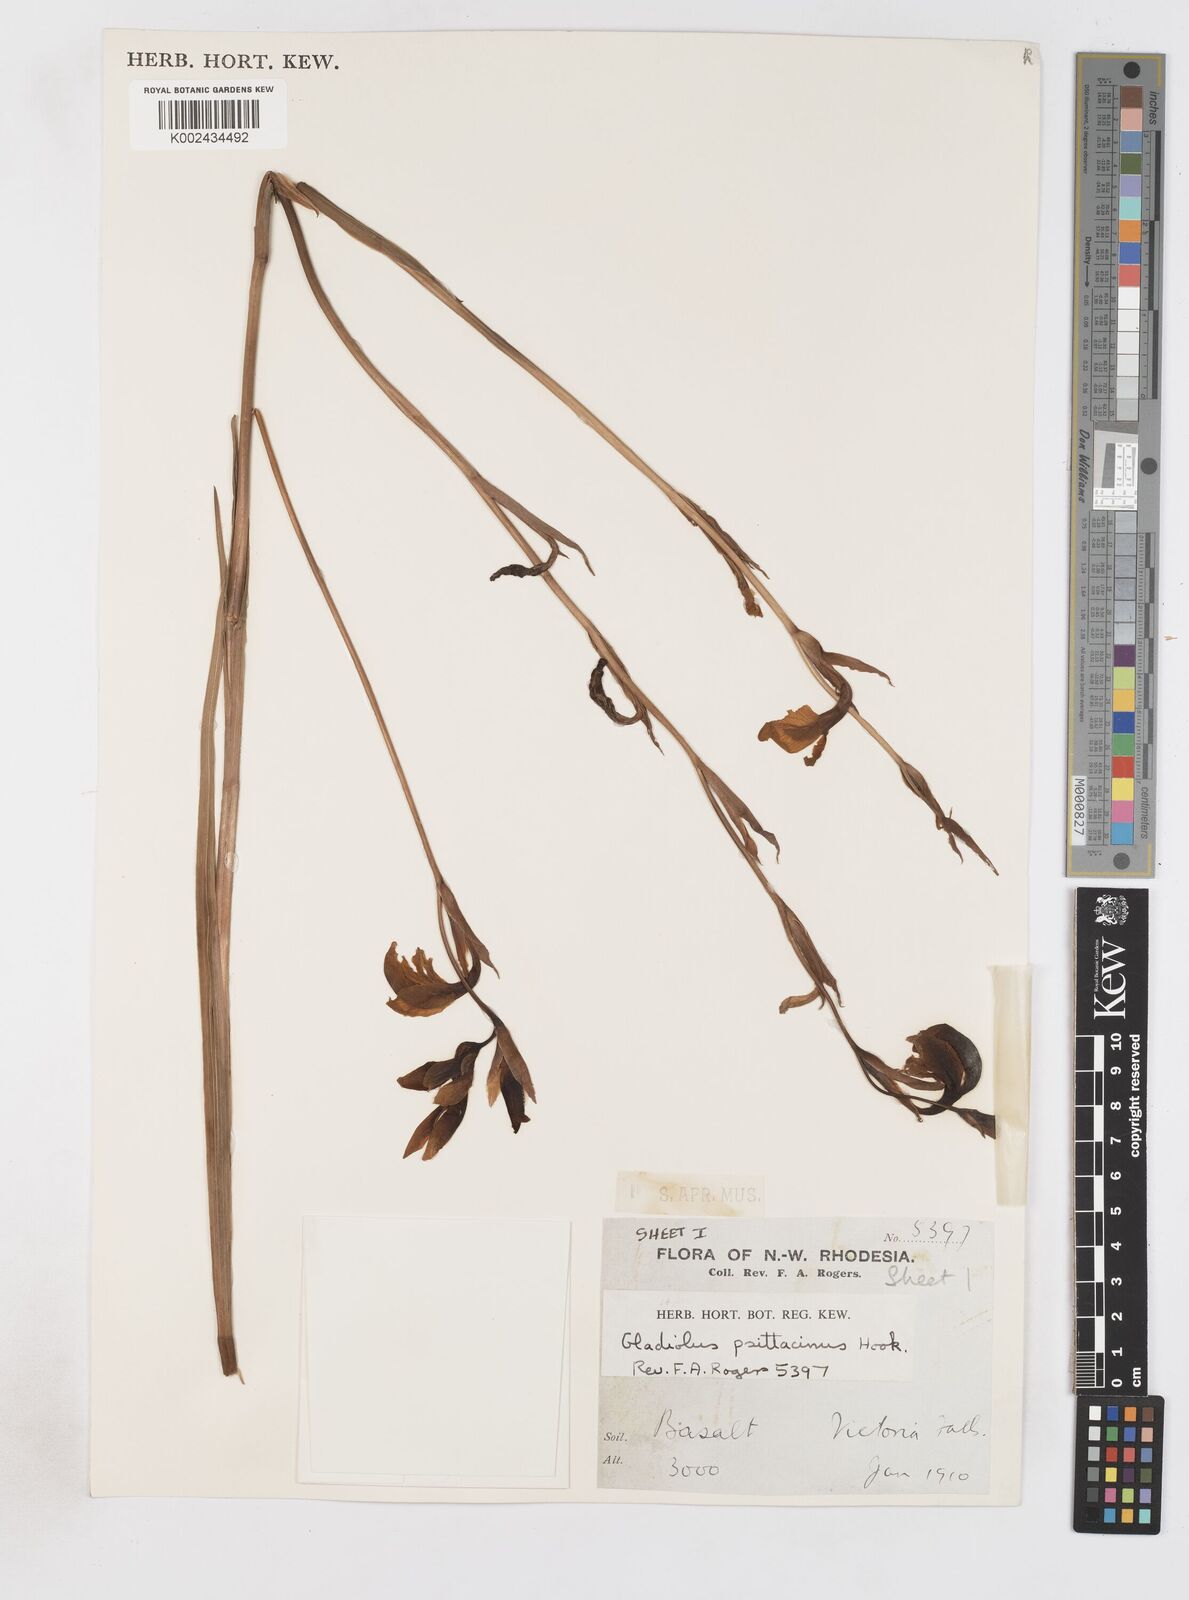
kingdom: Plantae
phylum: Tracheophyta
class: Liliopsida
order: Asparagales
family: Iridaceae
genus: Gladiolus
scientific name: Gladiolus dalenii
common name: Cornflag
